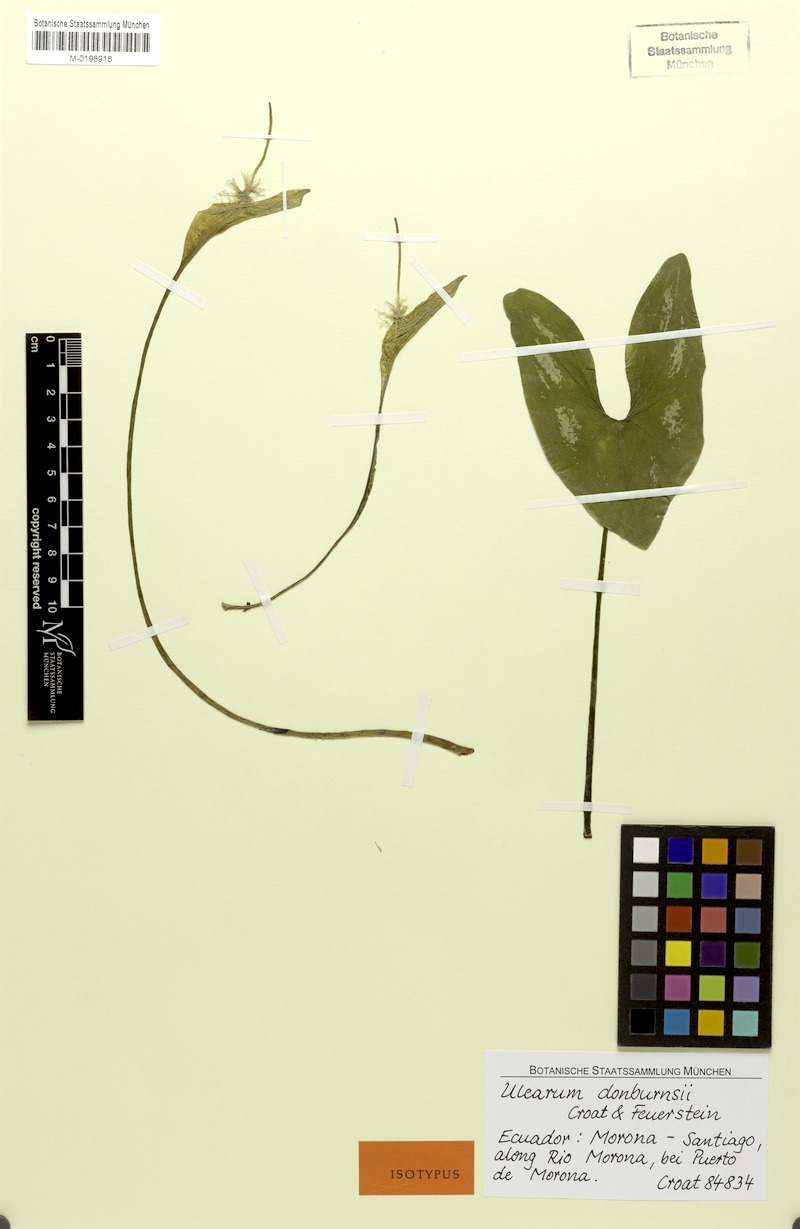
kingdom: Plantae
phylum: Tracheophyta
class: Liliopsida
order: Alismatales
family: Araceae
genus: Ulearum
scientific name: Ulearum donburnsii
